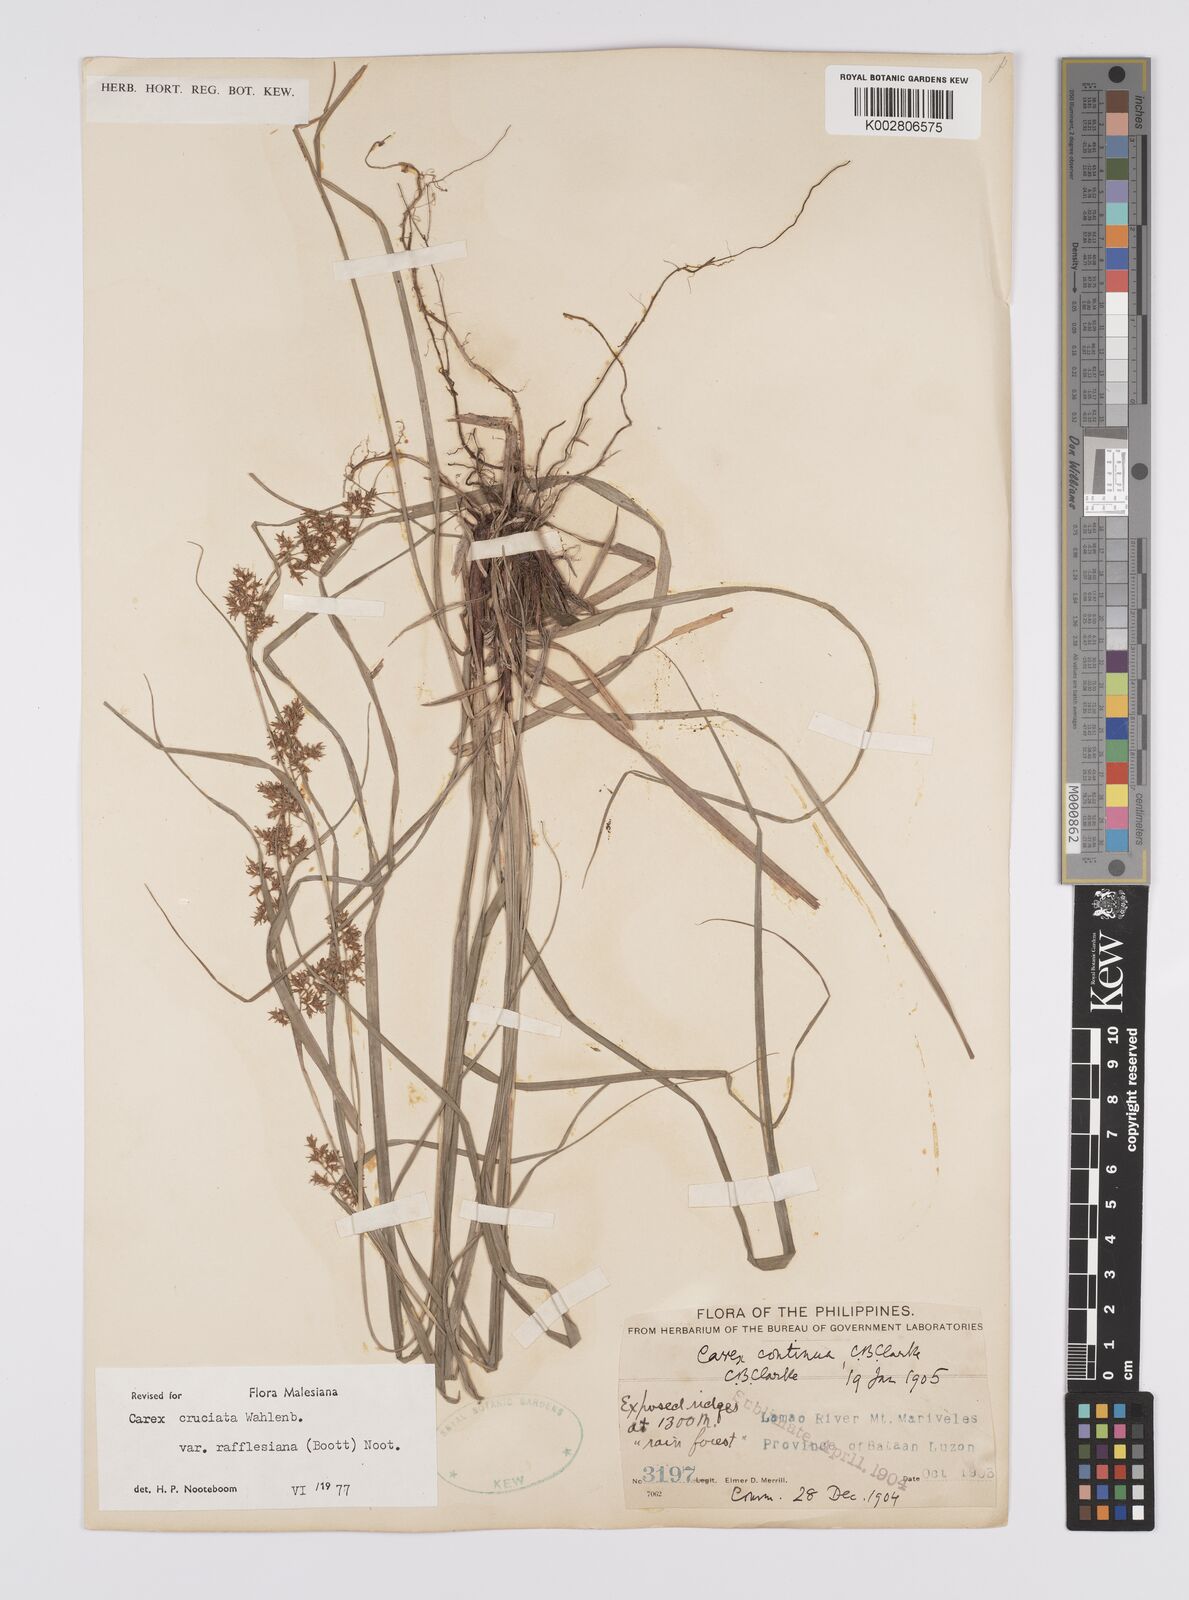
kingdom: Plantae
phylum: Tracheophyta
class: Liliopsida
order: Poales
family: Cyperaceae
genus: Carex
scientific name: Carex rafflesiana
